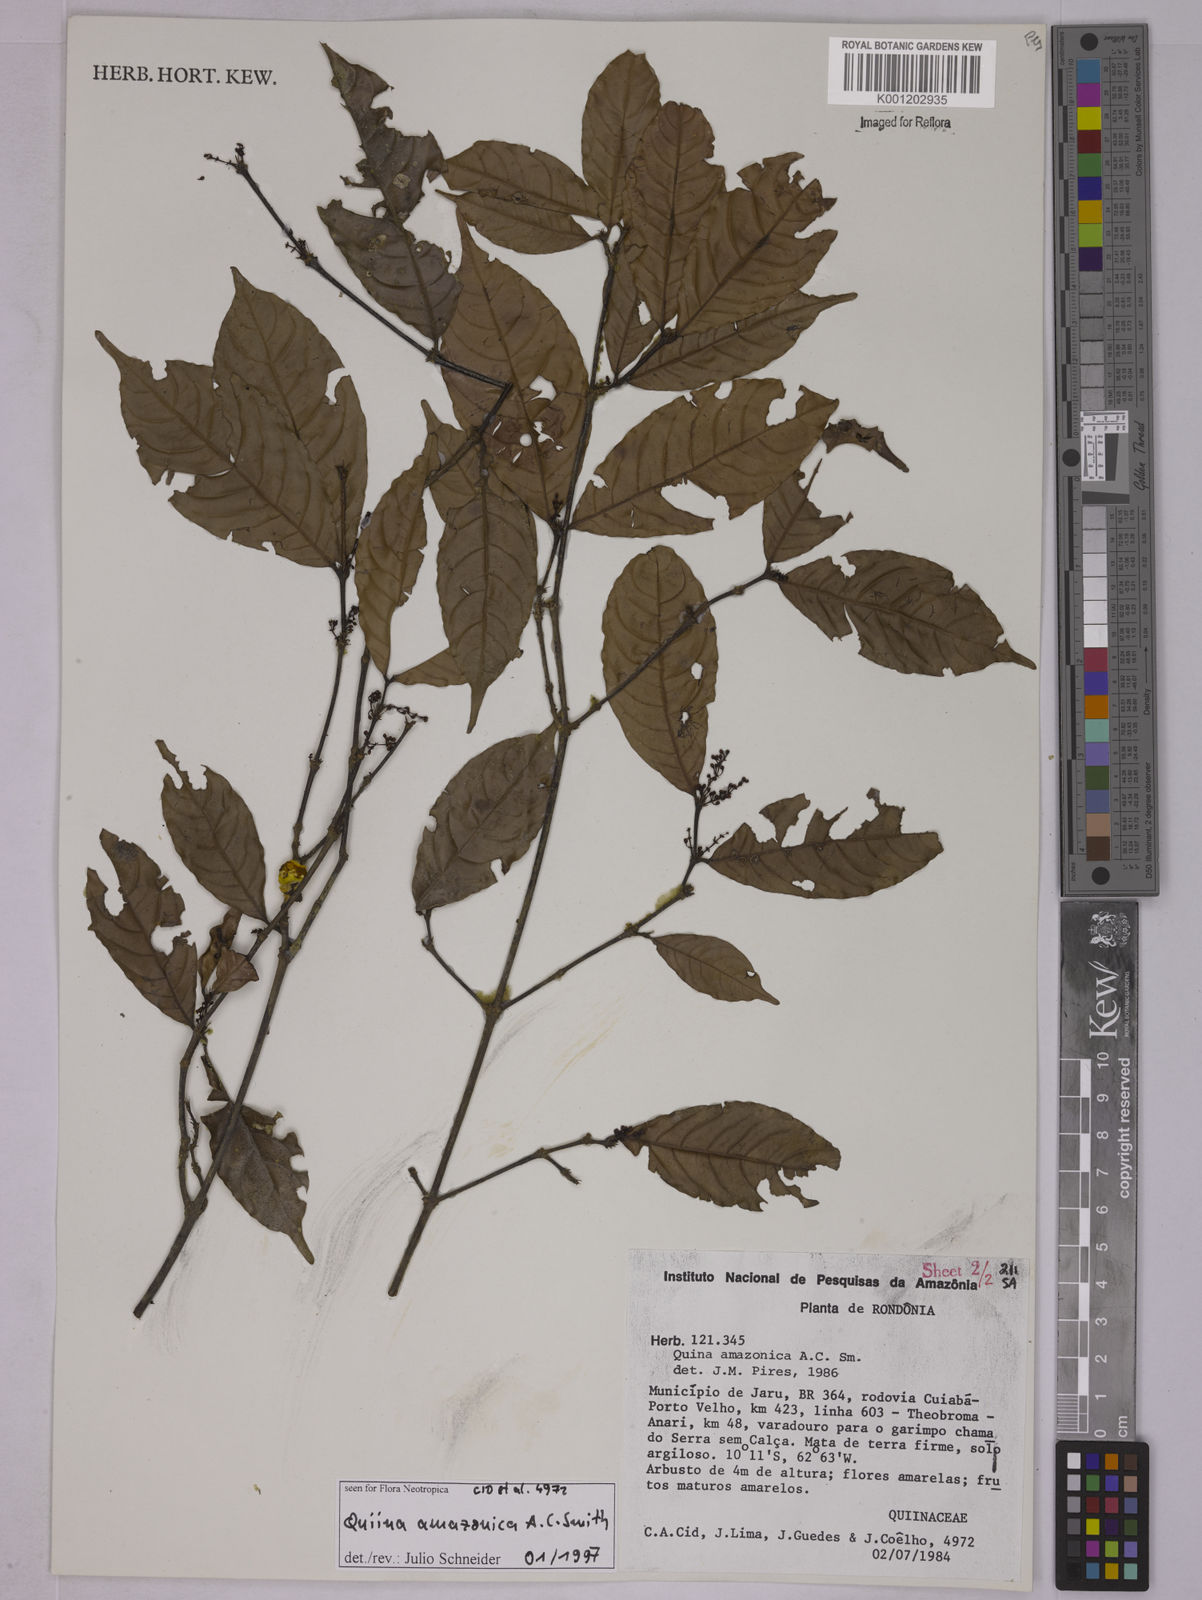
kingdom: Plantae
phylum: Tracheophyta
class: Magnoliopsida
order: Malpighiales
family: Quiinaceae
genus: Quiina
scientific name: Quiina amazonica
